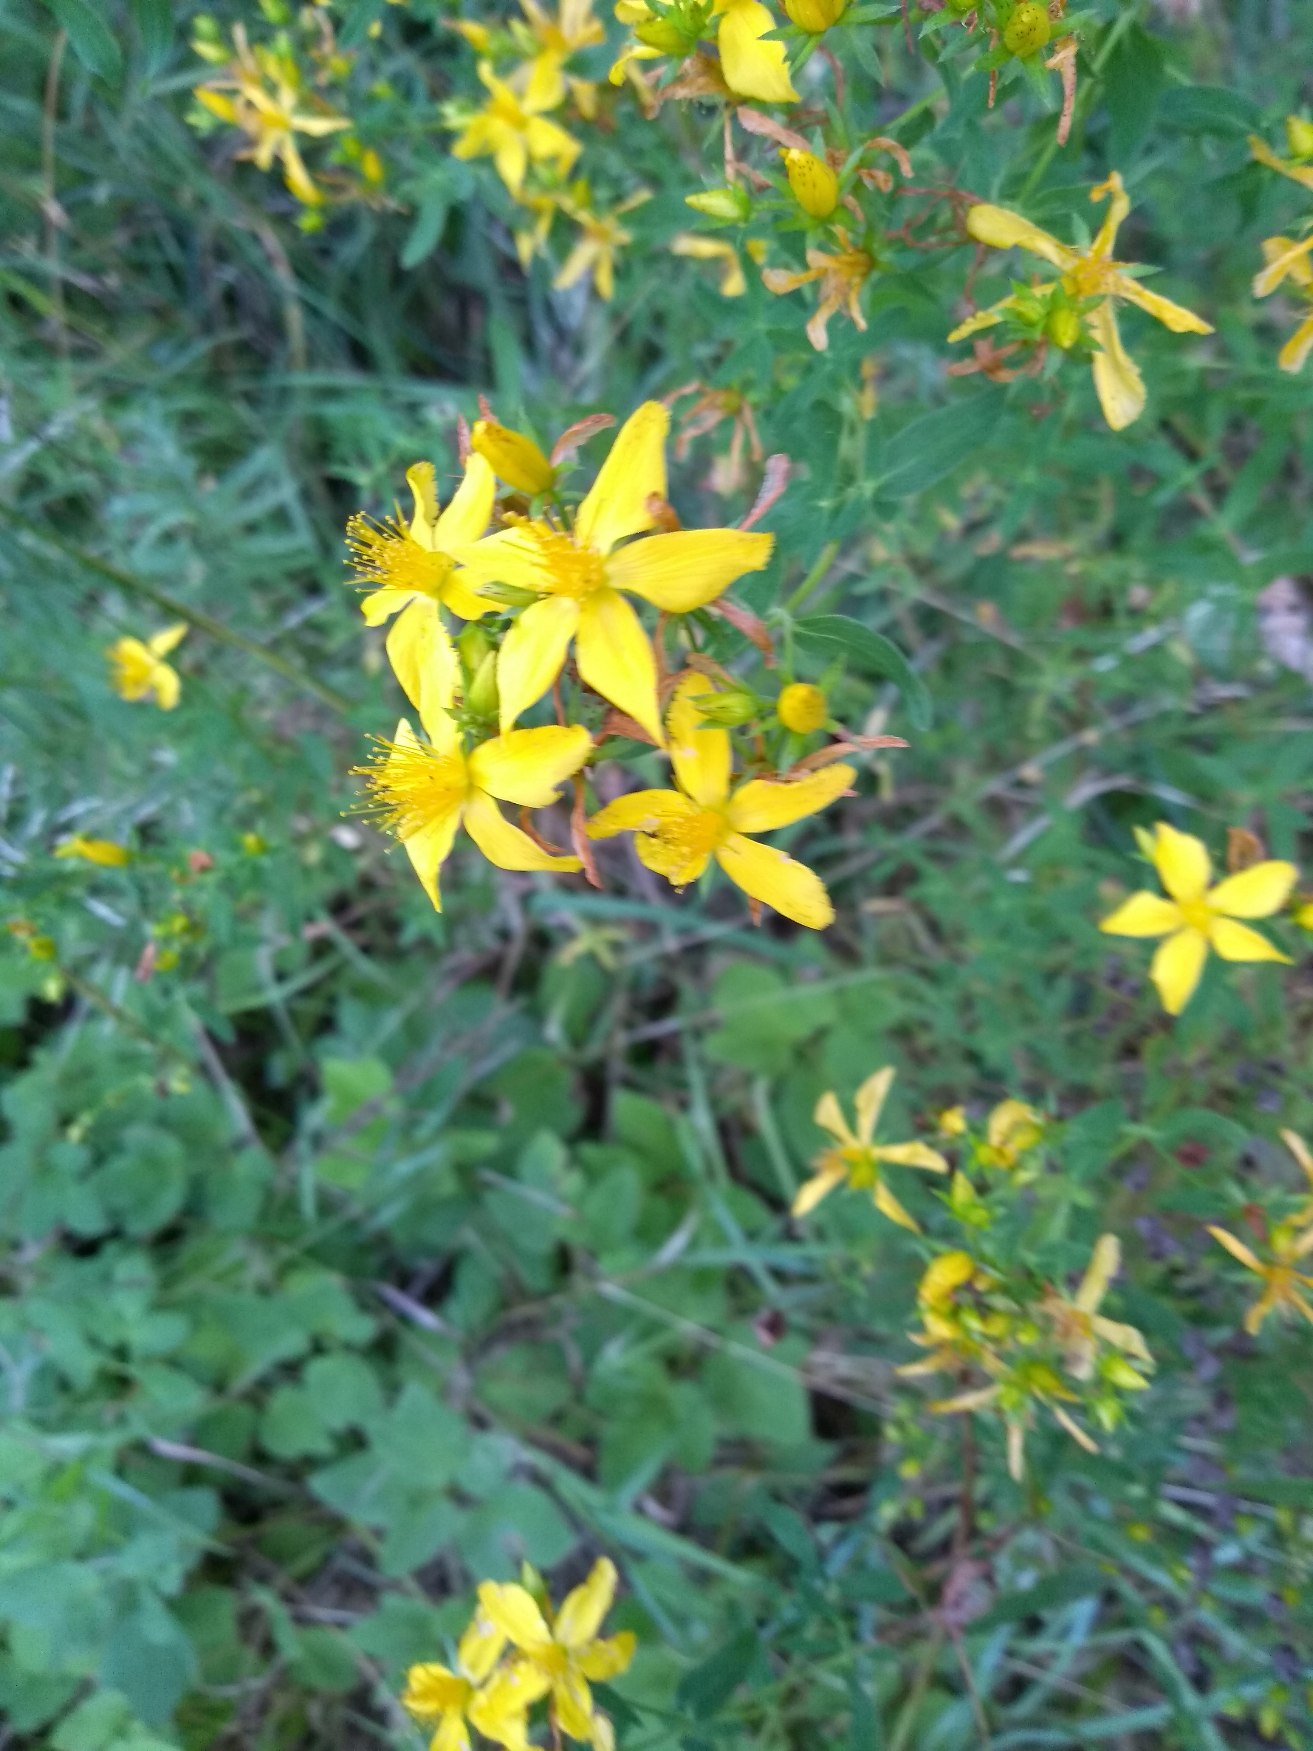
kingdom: Plantae
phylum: Tracheophyta
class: Magnoliopsida
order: Malpighiales
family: Hypericaceae
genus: Hypericum
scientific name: Hypericum perforatum
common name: Prikbladet perikon
